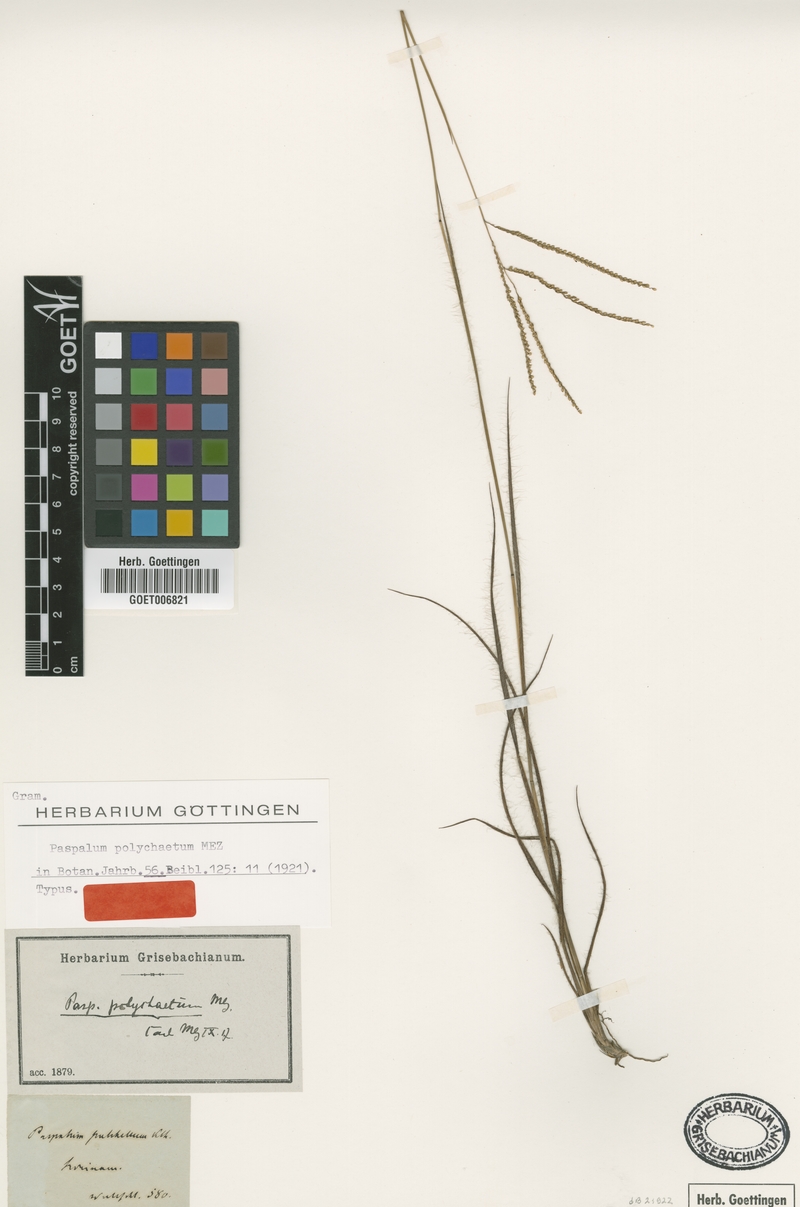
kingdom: Plantae
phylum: Tracheophyta
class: Liliopsida
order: Poales
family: Poaceae
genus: Paspalum
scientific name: Paspalum hyalinum
